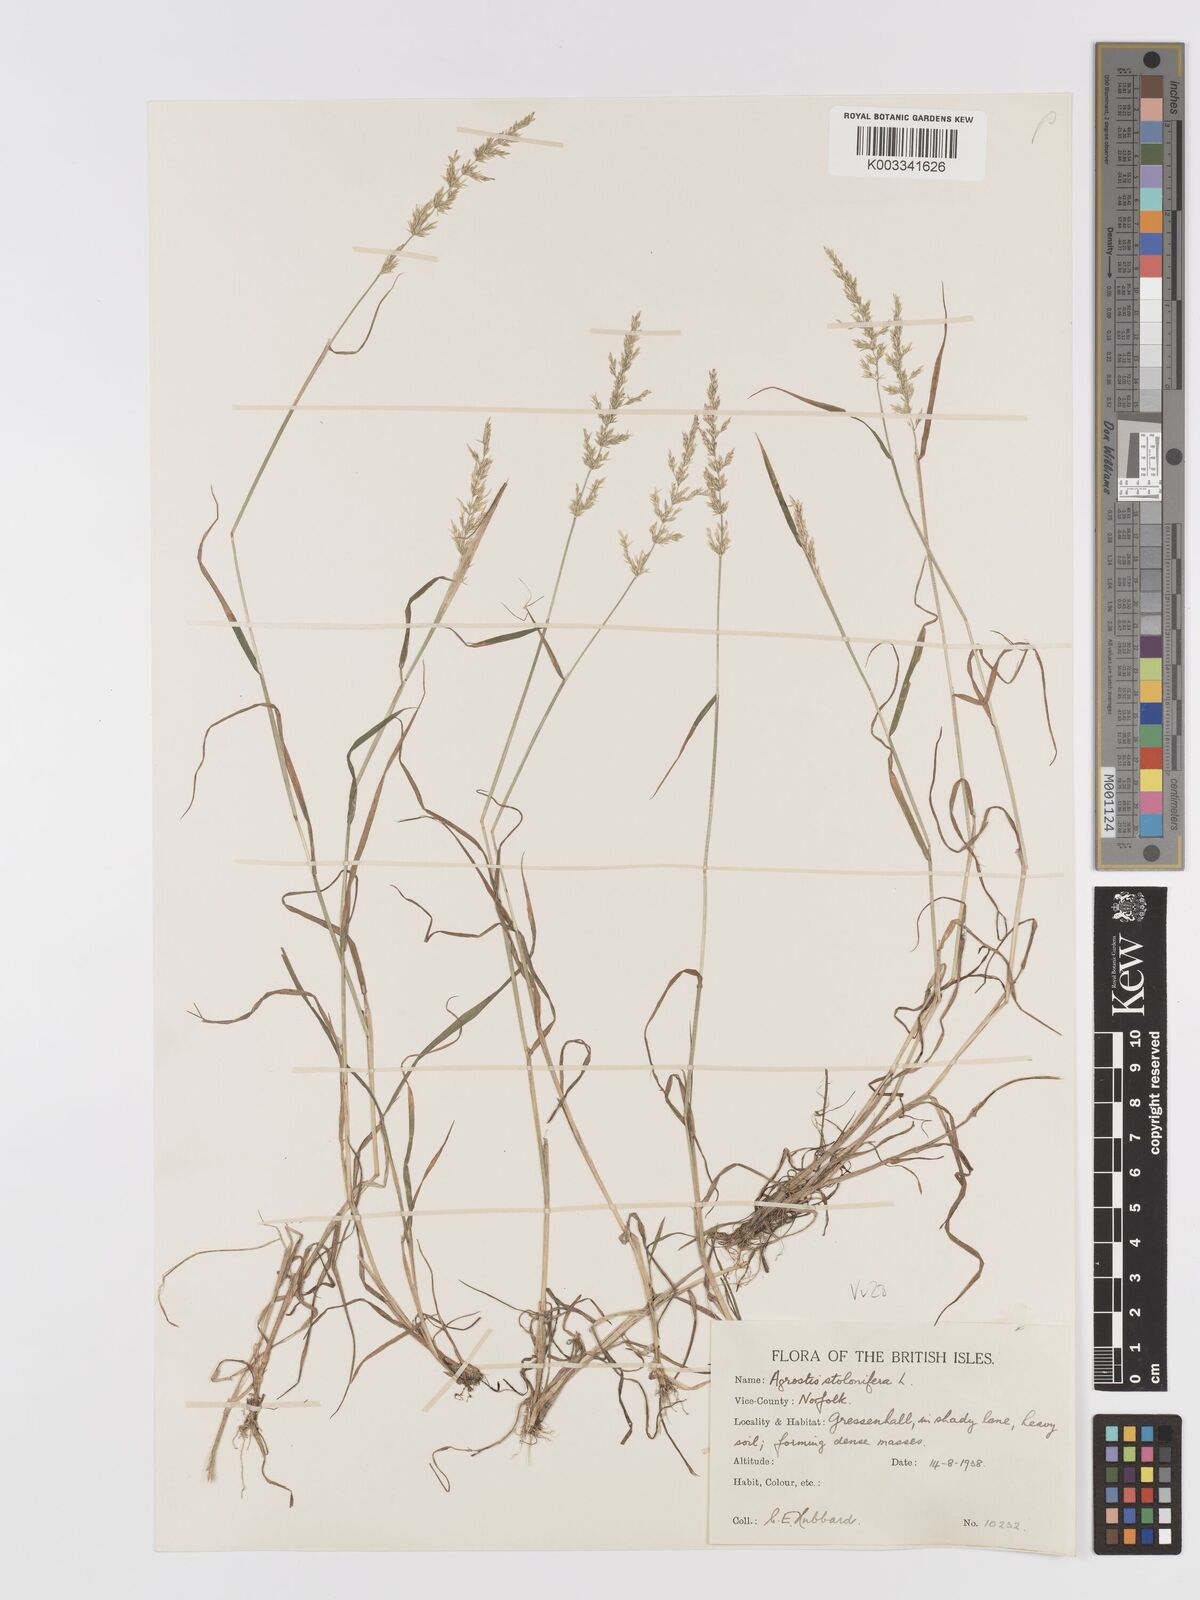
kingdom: Plantae
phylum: Tracheophyta
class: Liliopsida
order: Poales
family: Poaceae
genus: Agrostis
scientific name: Agrostis stolonifera
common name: Creeping bentgrass
